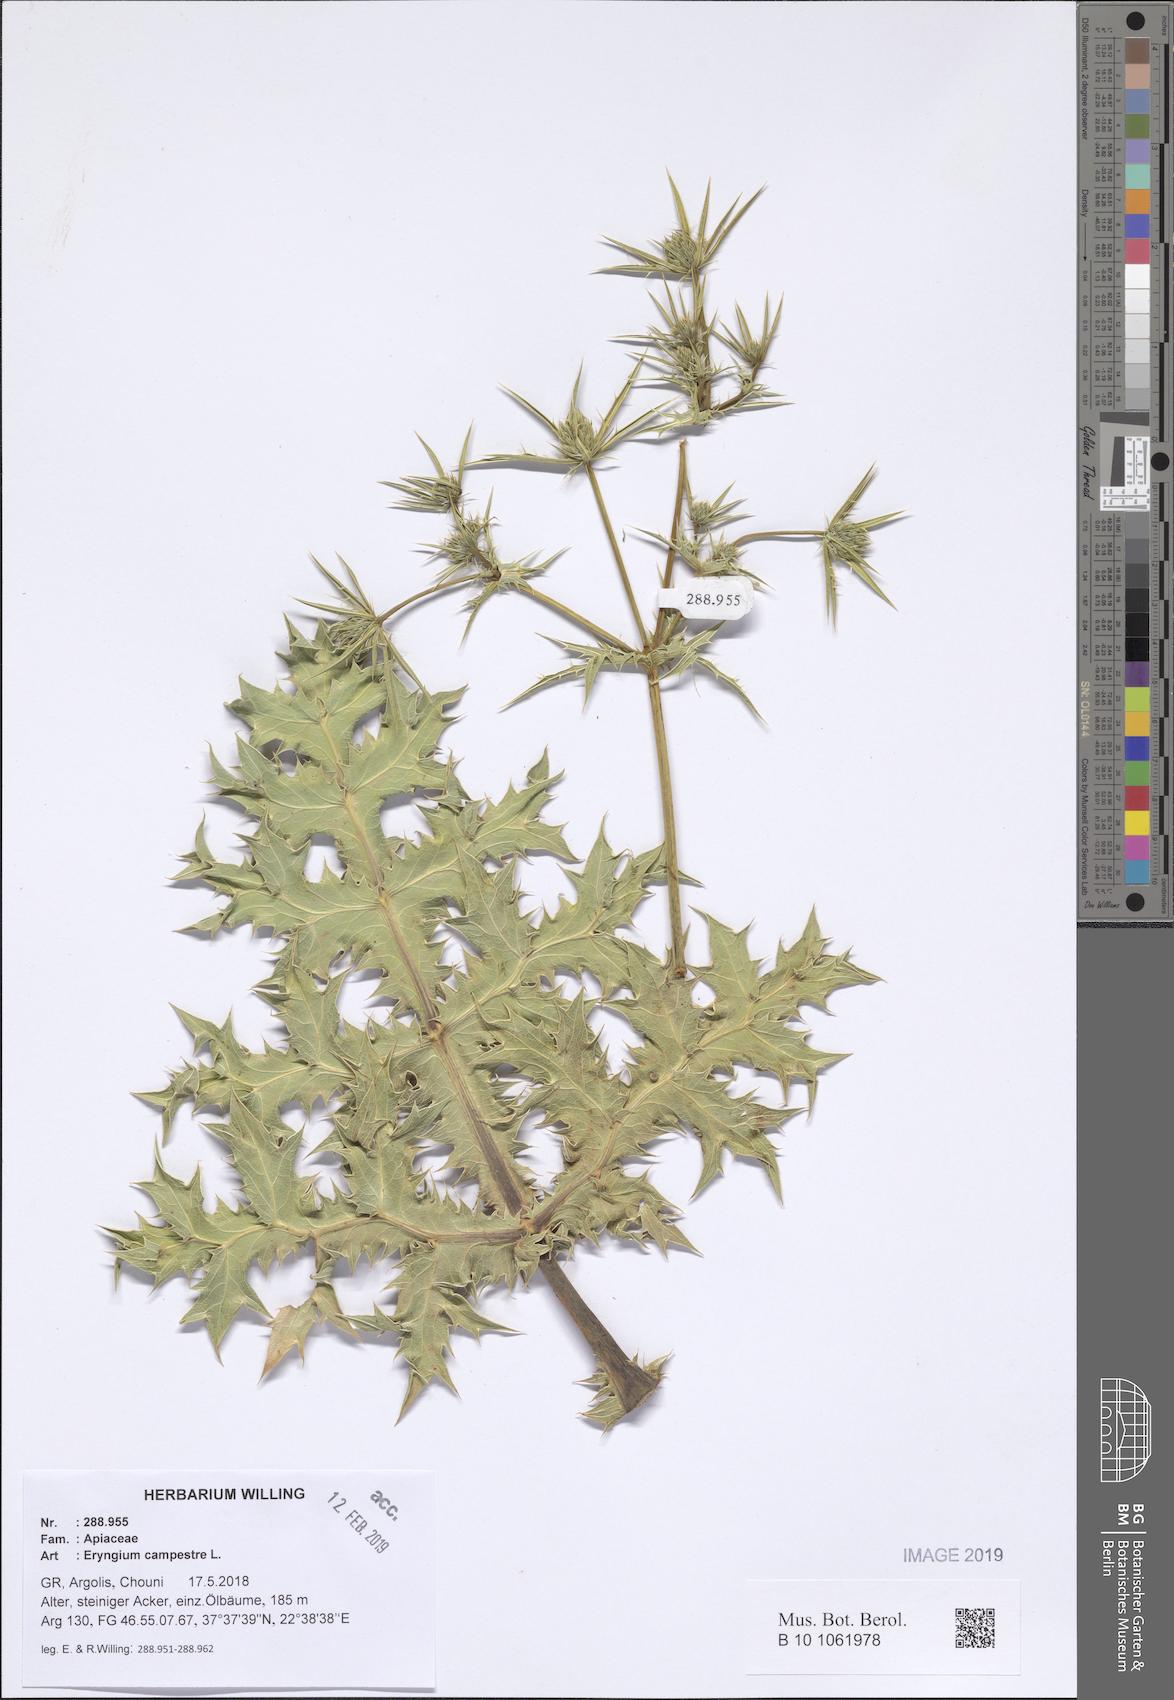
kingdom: Plantae
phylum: Tracheophyta
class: Magnoliopsida
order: Apiales
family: Apiaceae
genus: Eryngium
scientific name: Eryngium campestre
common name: Field eryngo
